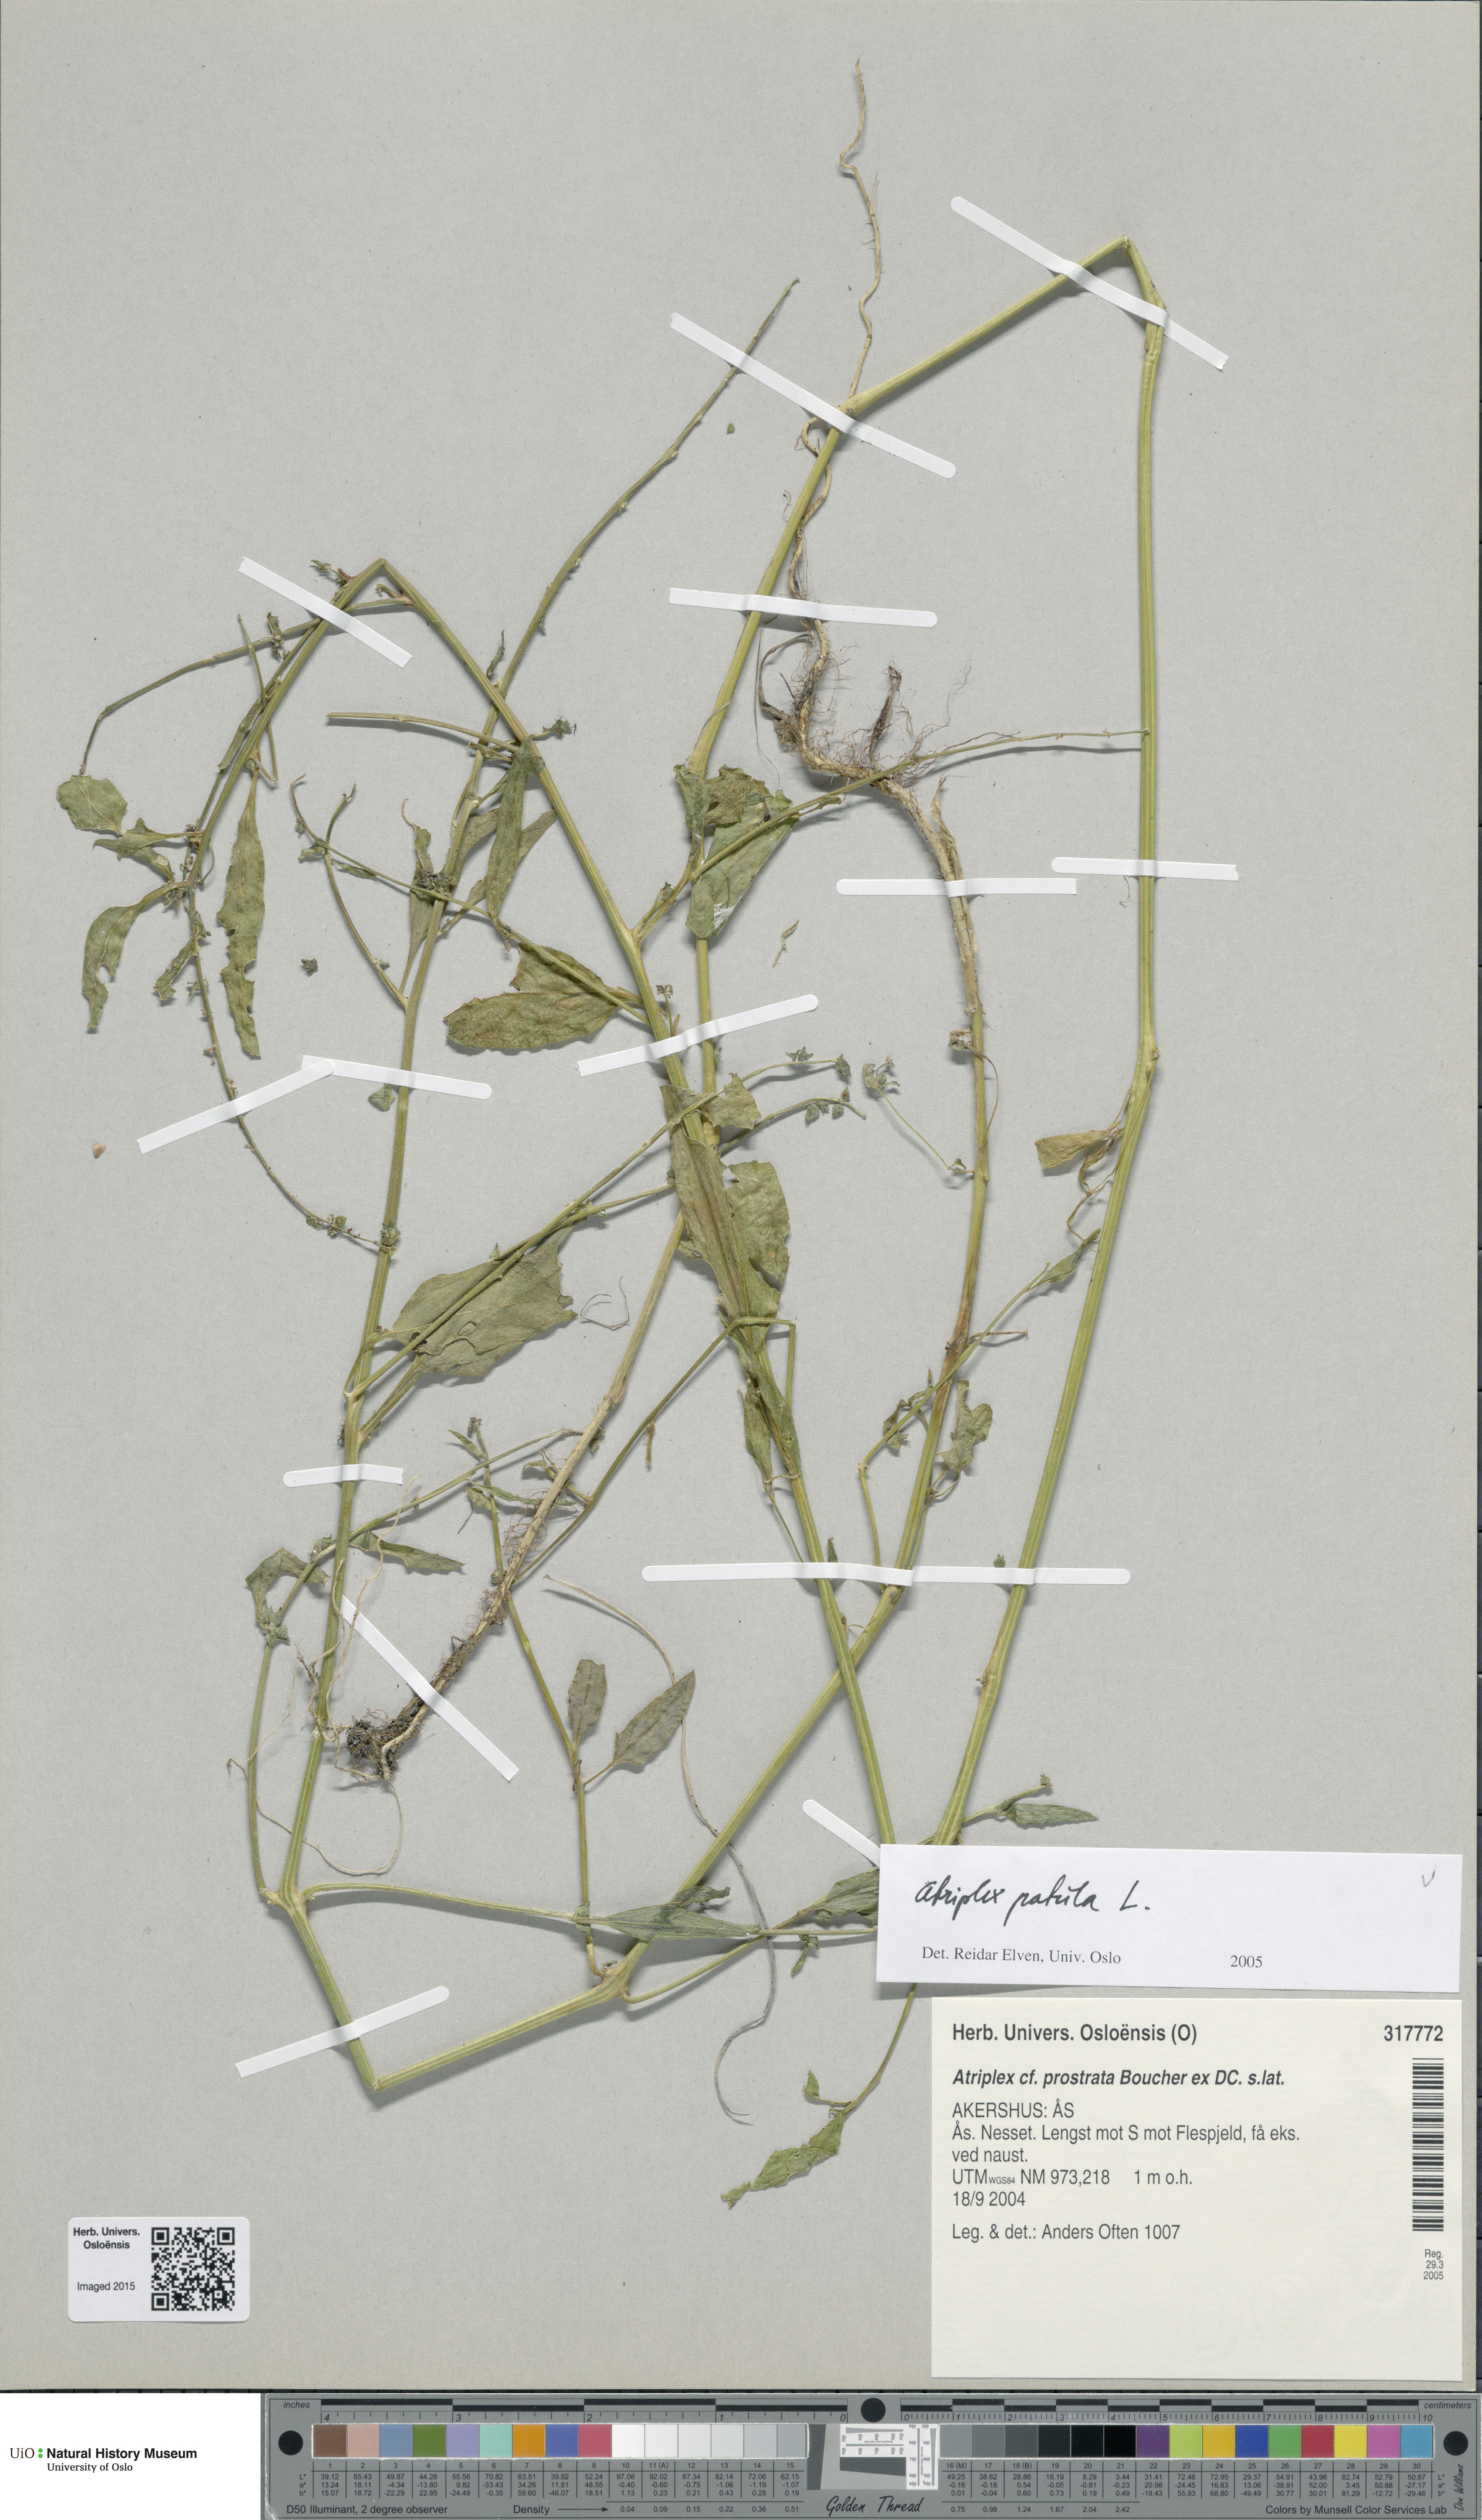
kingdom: Plantae
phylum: Tracheophyta
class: Magnoliopsida
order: Caryophyllales
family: Amaranthaceae
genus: Atriplex
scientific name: Atriplex patula
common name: Common orache
